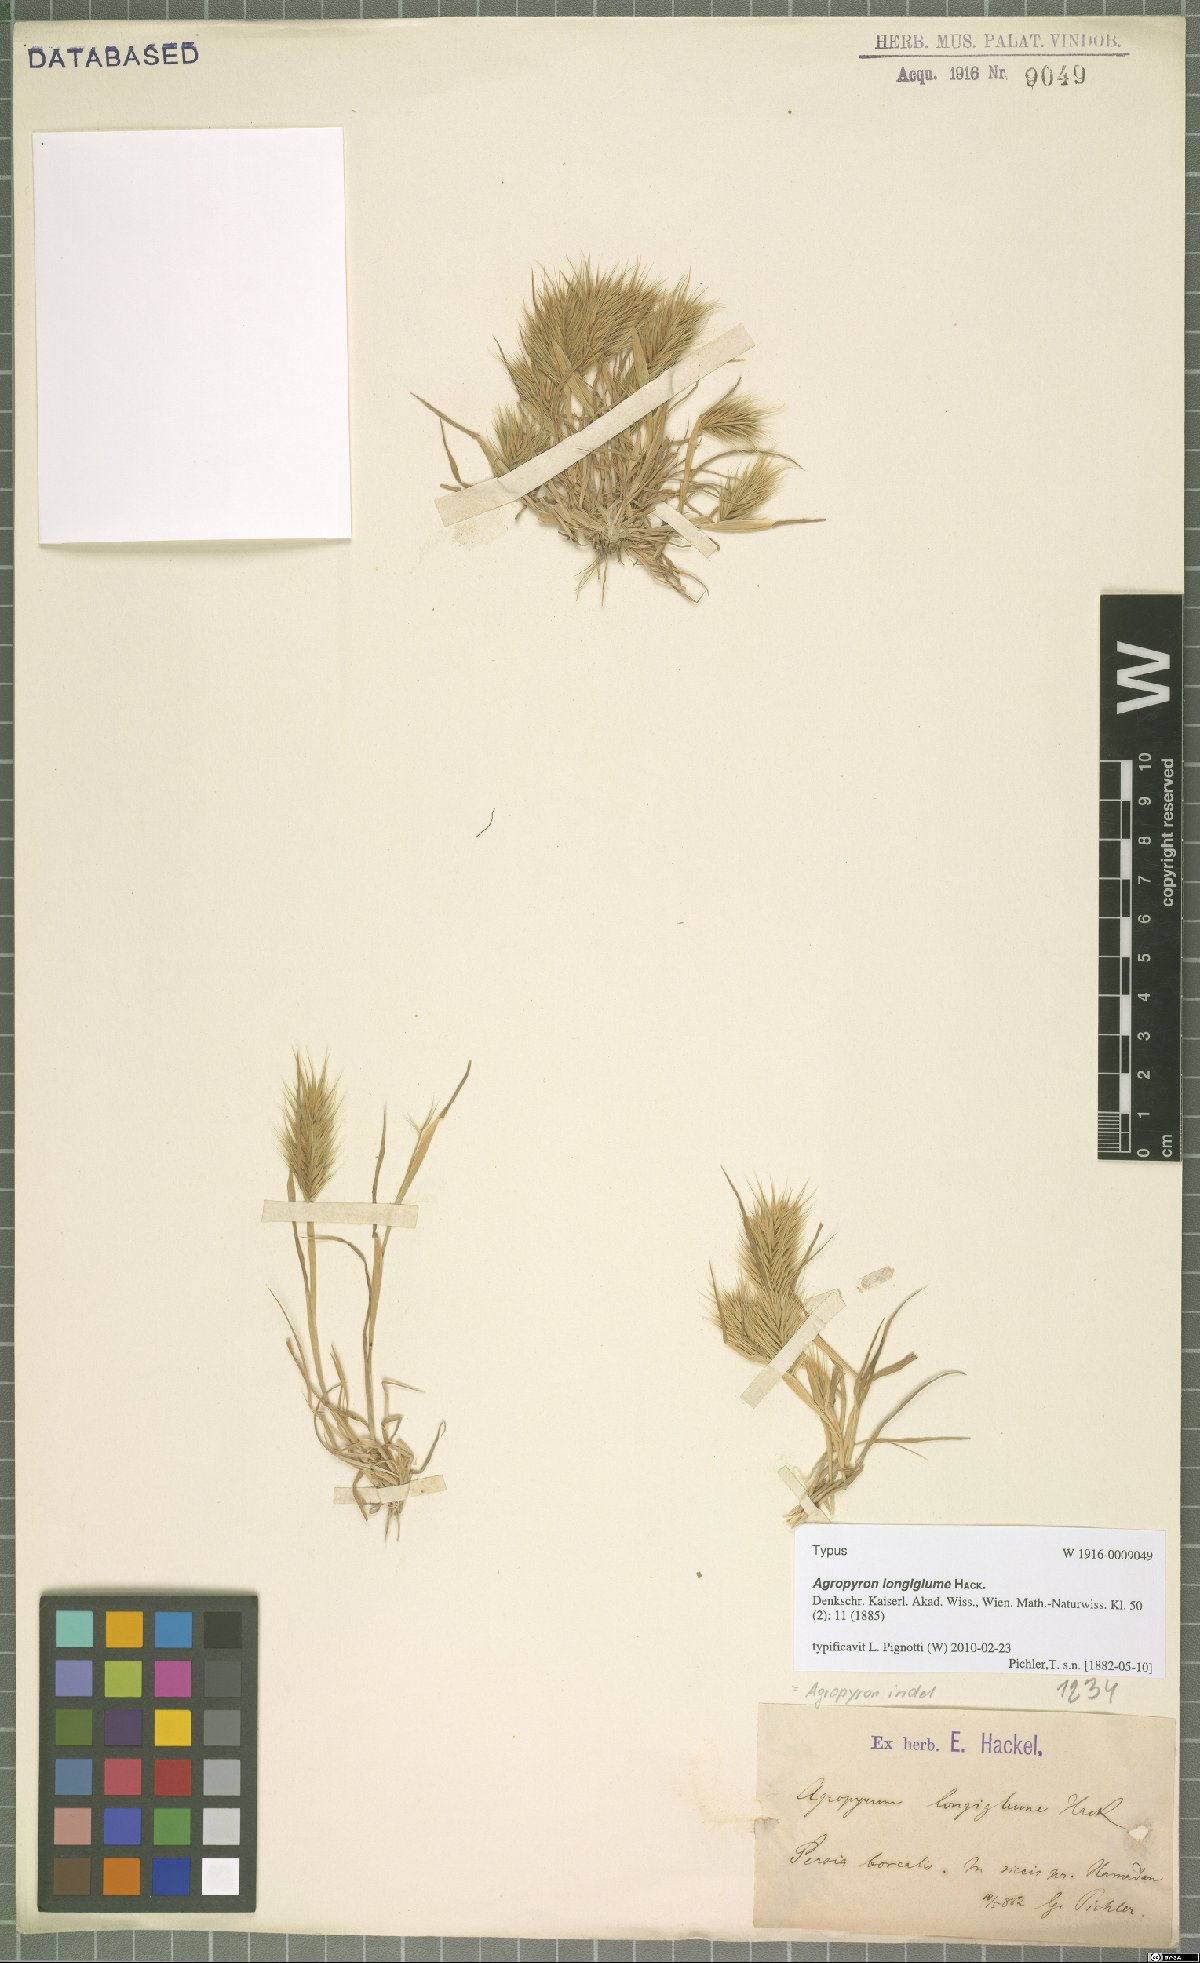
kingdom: Plantae
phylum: Tracheophyta
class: Liliopsida
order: Poales
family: Poaceae
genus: Eremopyrum
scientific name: Eremopyrum orientale
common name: Oriental false wheatgrass
